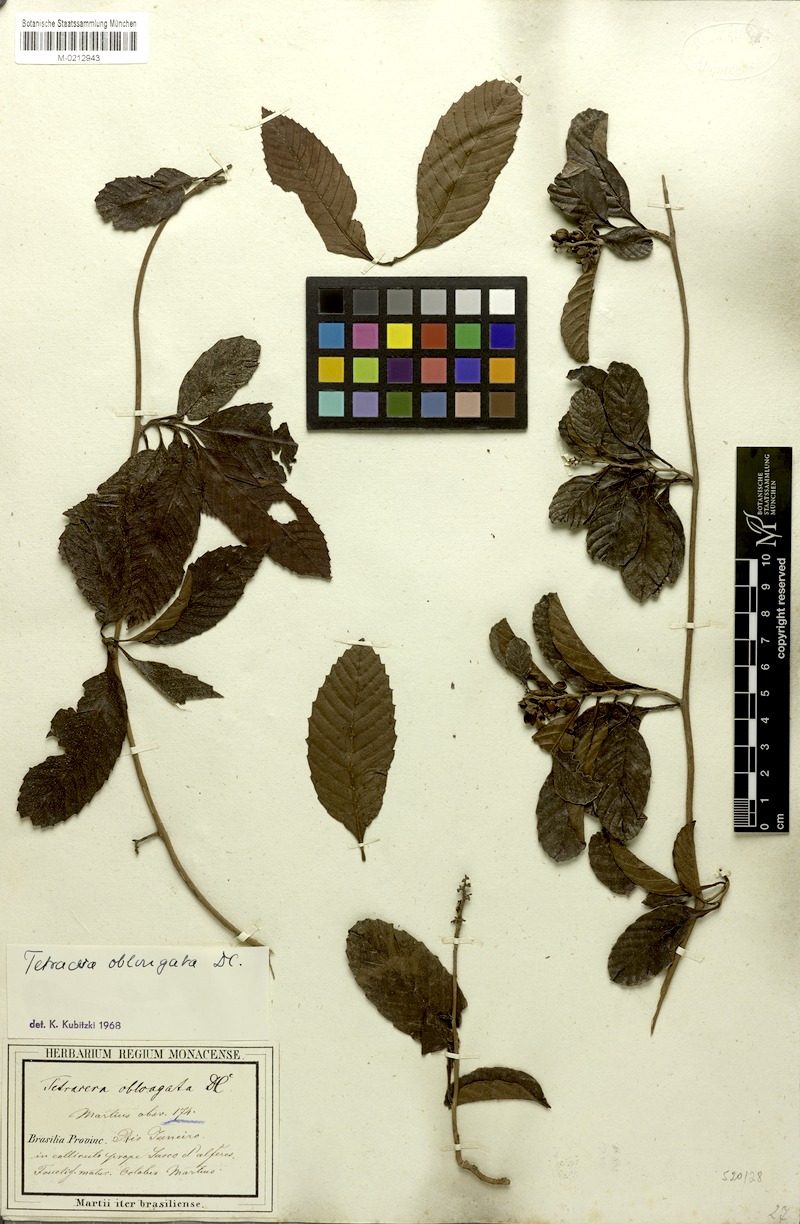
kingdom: Plantae
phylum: Tracheophyta
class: Magnoliopsida
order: Dilleniales
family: Dilleniaceae
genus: Tetracera
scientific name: Tetracera oblongata
